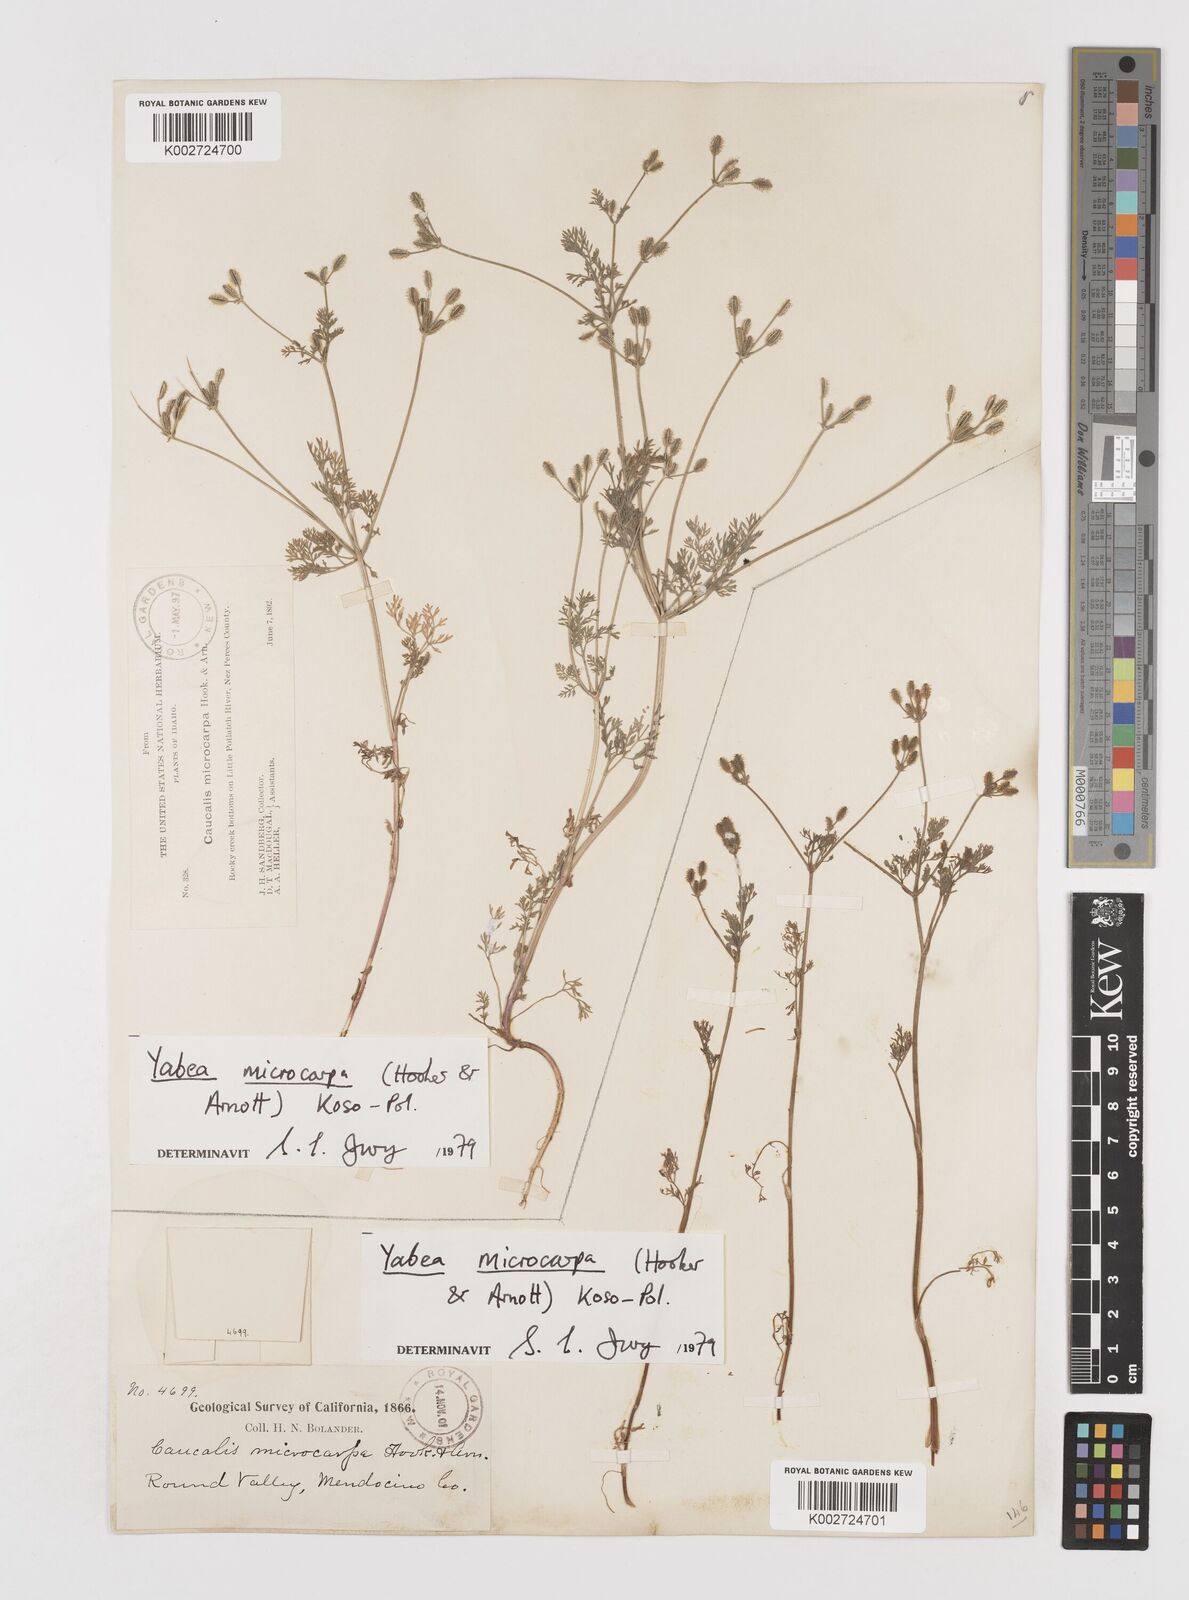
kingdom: Plantae
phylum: Tracheophyta
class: Magnoliopsida
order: Apiales
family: Apiaceae
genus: Yabea
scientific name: Yabea microcarpa
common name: False carrot
